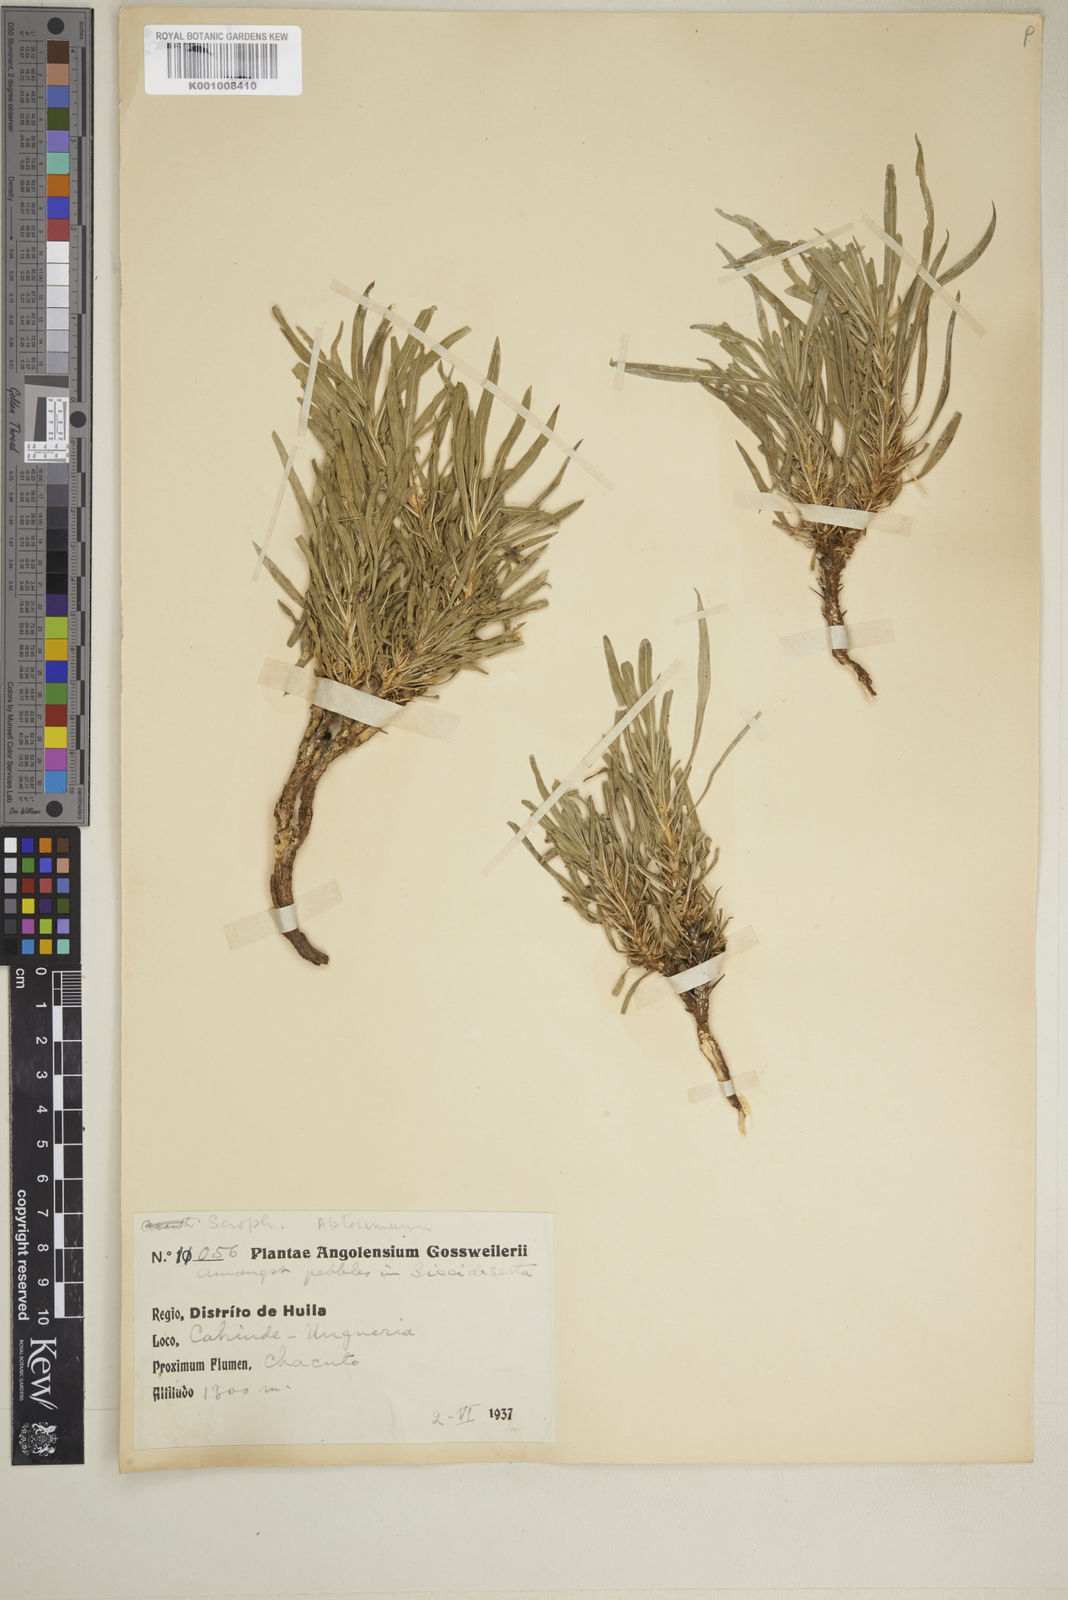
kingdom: Plantae
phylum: Tracheophyta
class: Magnoliopsida
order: Lamiales
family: Scrophulariaceae
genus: Aptosimum
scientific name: Aptosimum lineare
